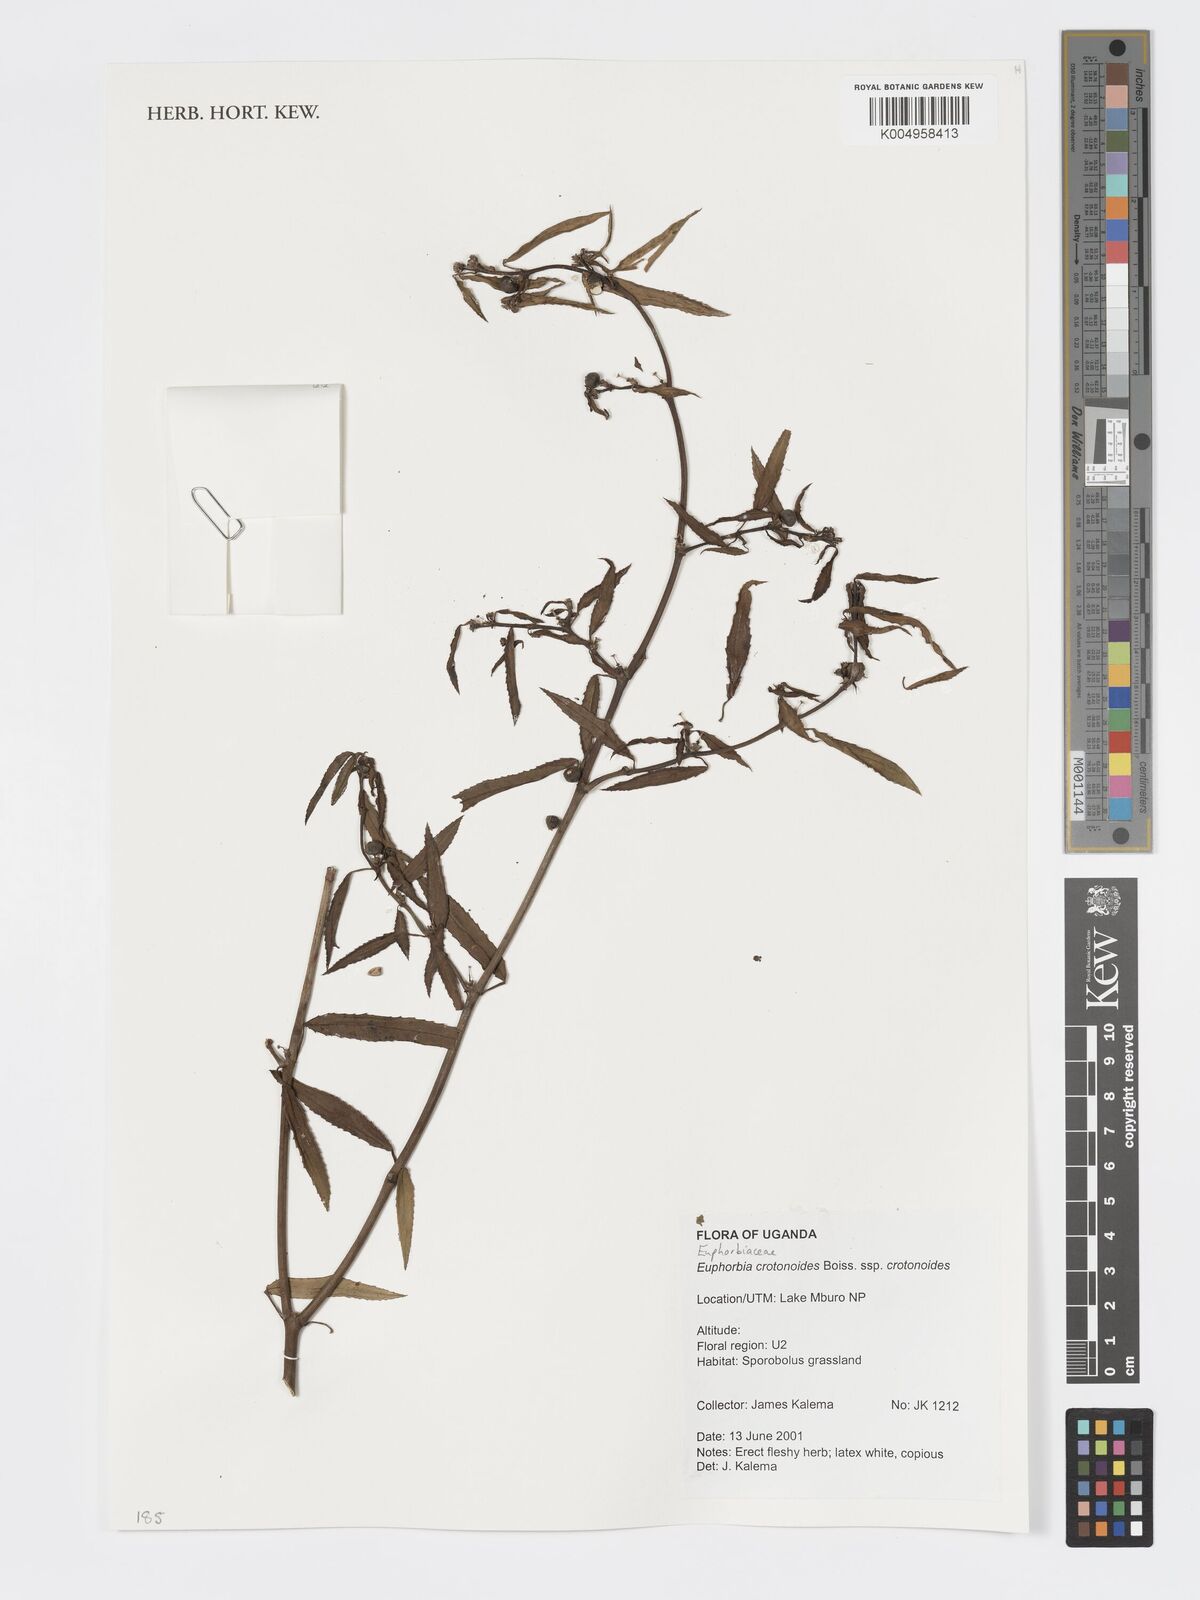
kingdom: Plantae
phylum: Tracheophyta
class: Magnoliopsida
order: Malpighiales
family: Euphorbiaceae
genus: Euphorbia
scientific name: Euphorbia crotonoides
